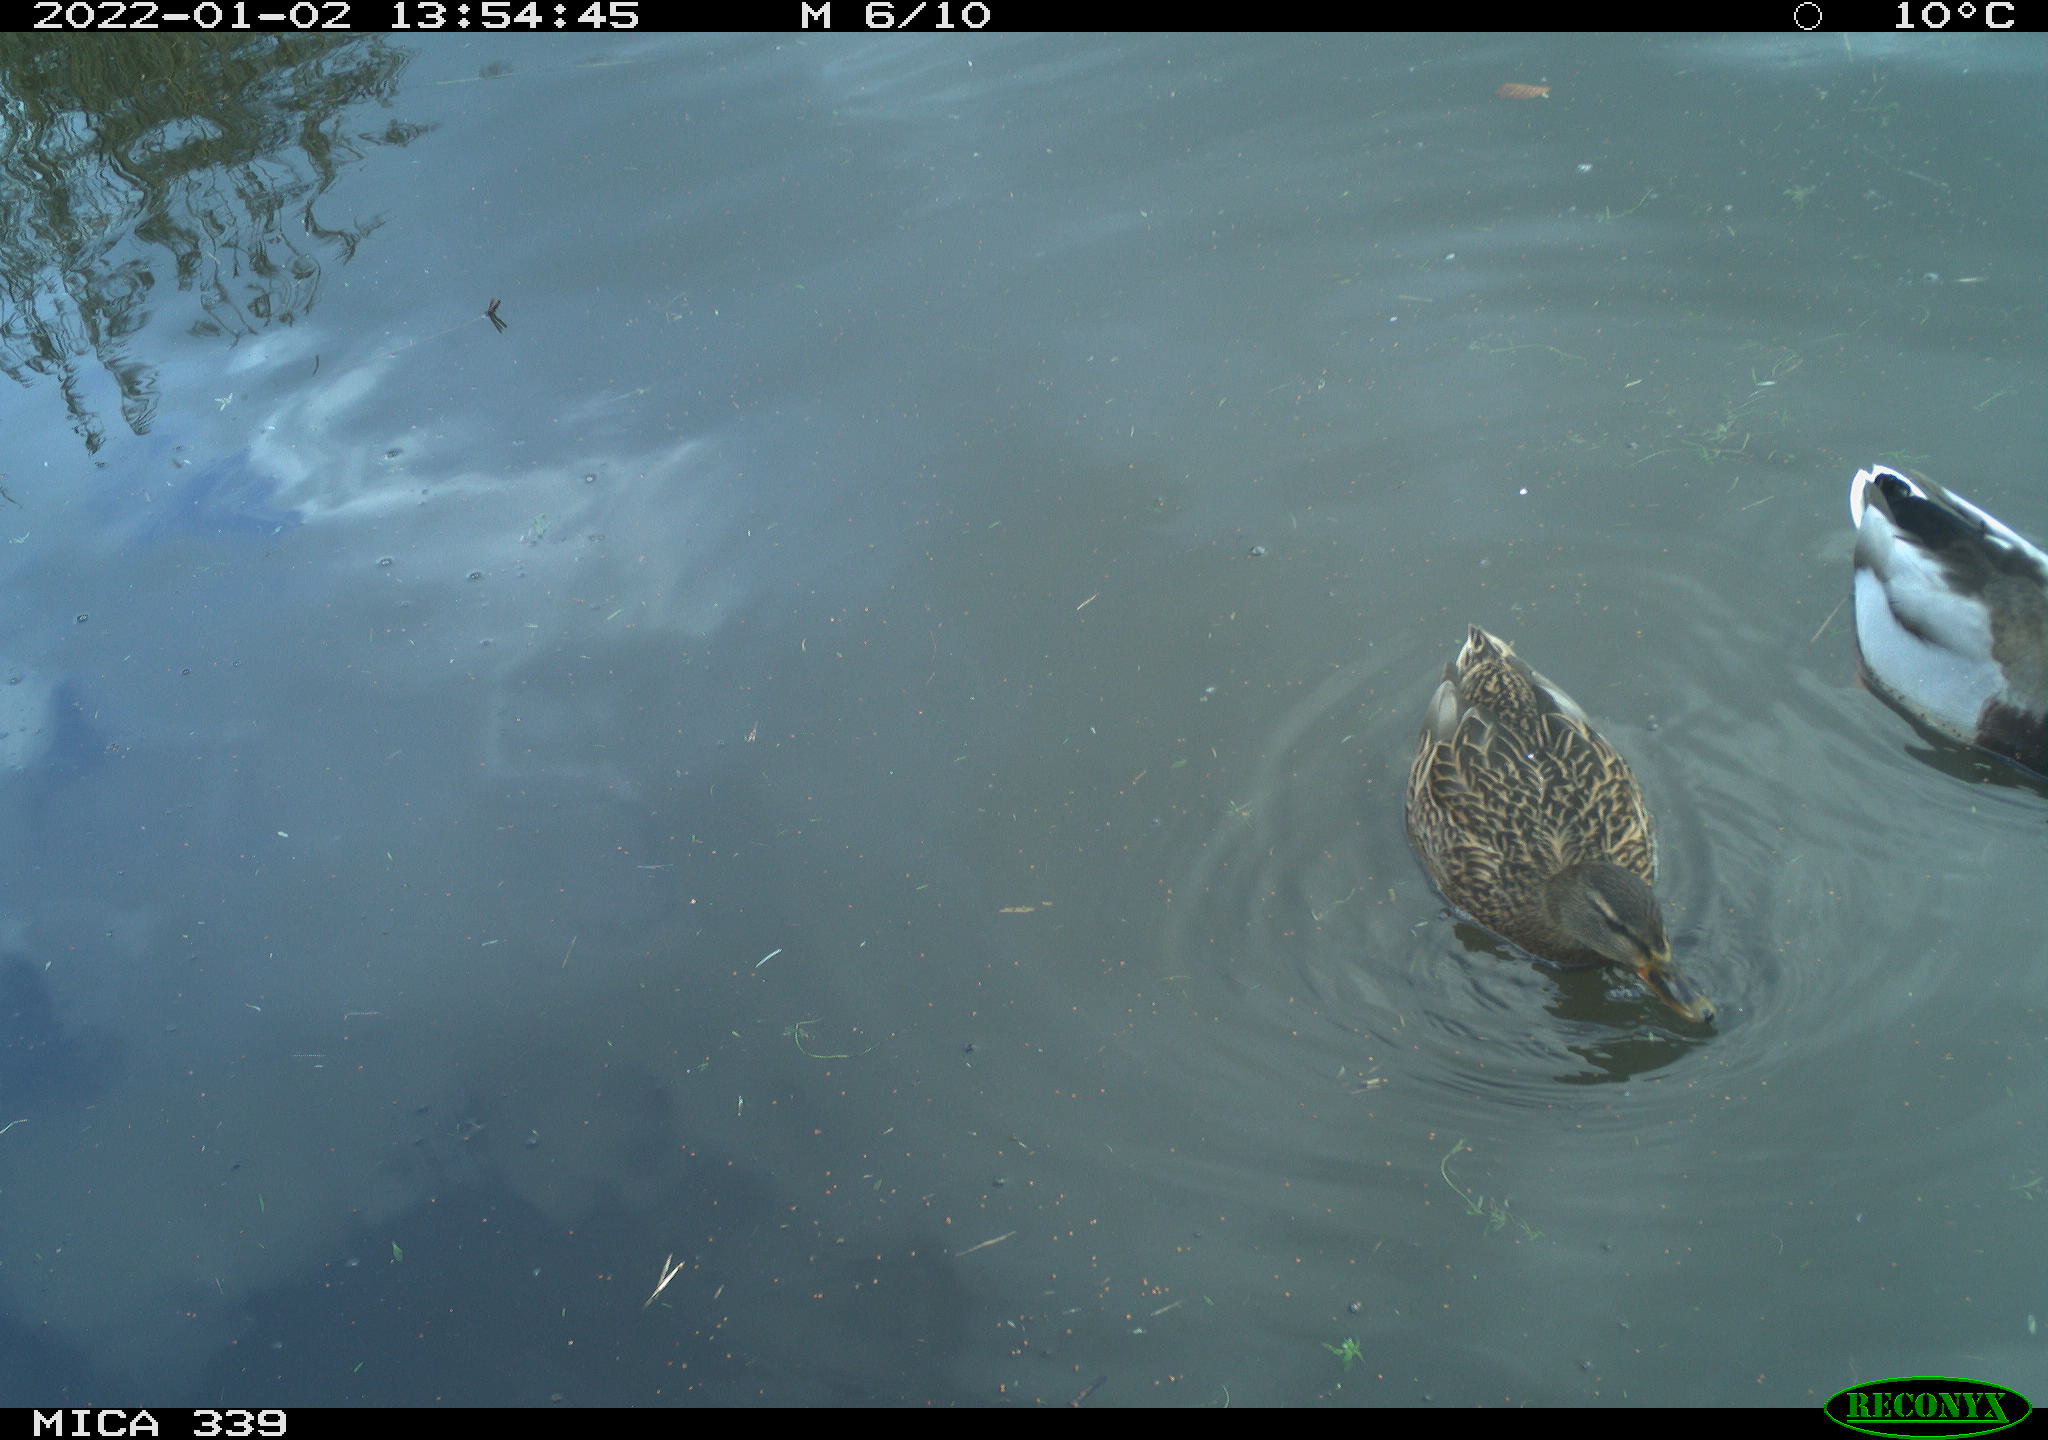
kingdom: Animalia
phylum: Chordata
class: Aves
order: Anseriformes
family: Anatidae
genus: Anas
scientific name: Anas platyrhynchos
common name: Mallard
